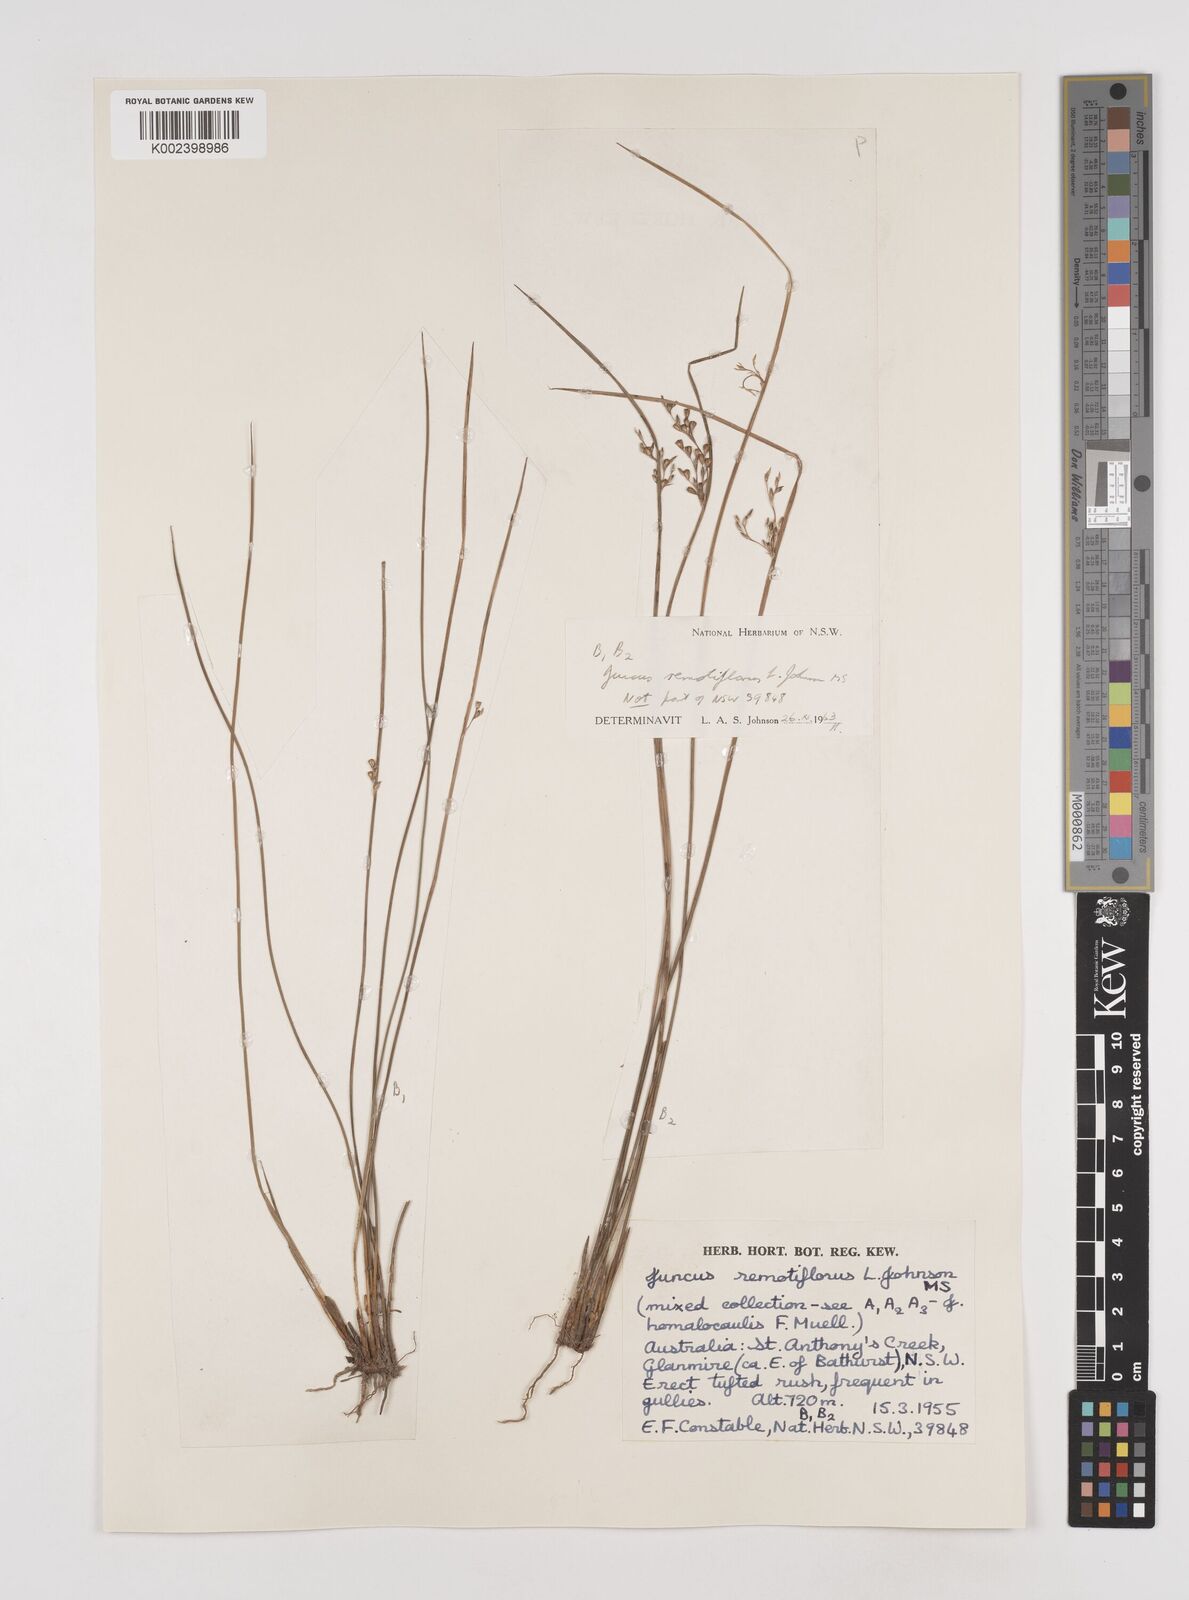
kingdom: Plantae
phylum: Tracheophyta
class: Liliopsida
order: Poales
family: Juncaceae
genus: Juncus
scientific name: Juncus remotiflorus
